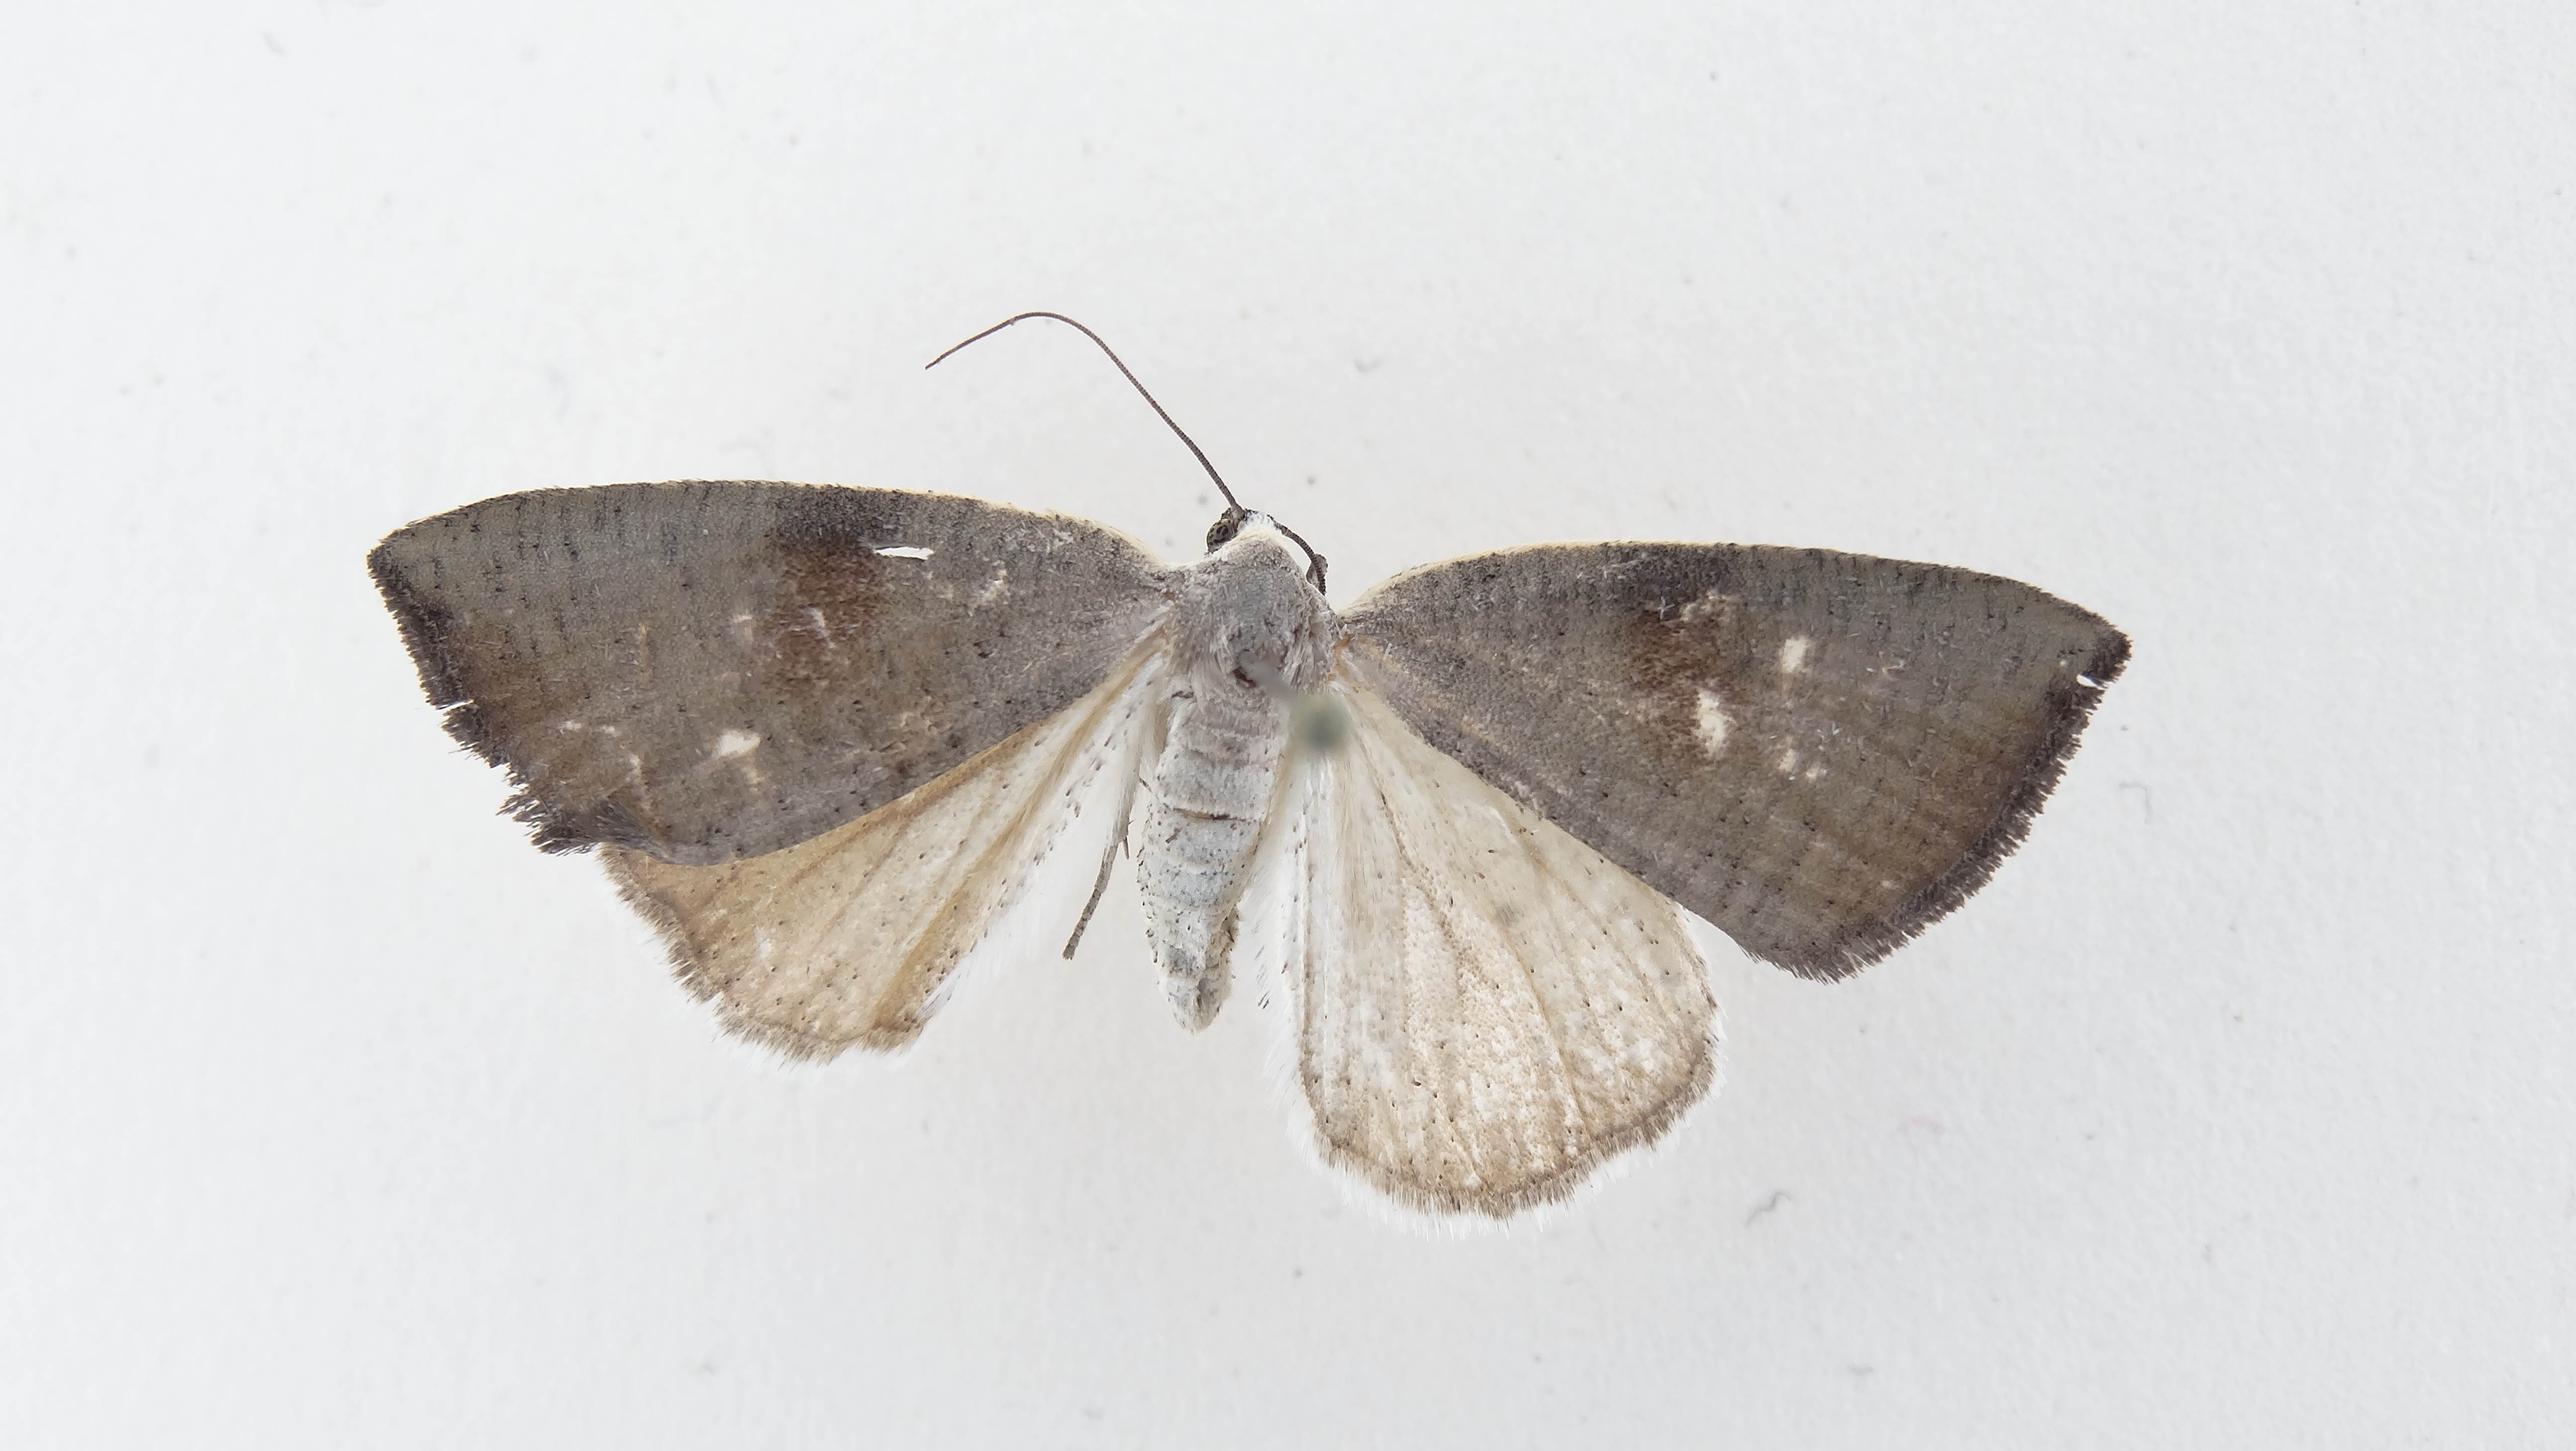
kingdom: Animalia
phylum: Arthropoda
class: Insecta
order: Lepidoptera
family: Geometridae
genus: Asestra
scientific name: Asestra derance
